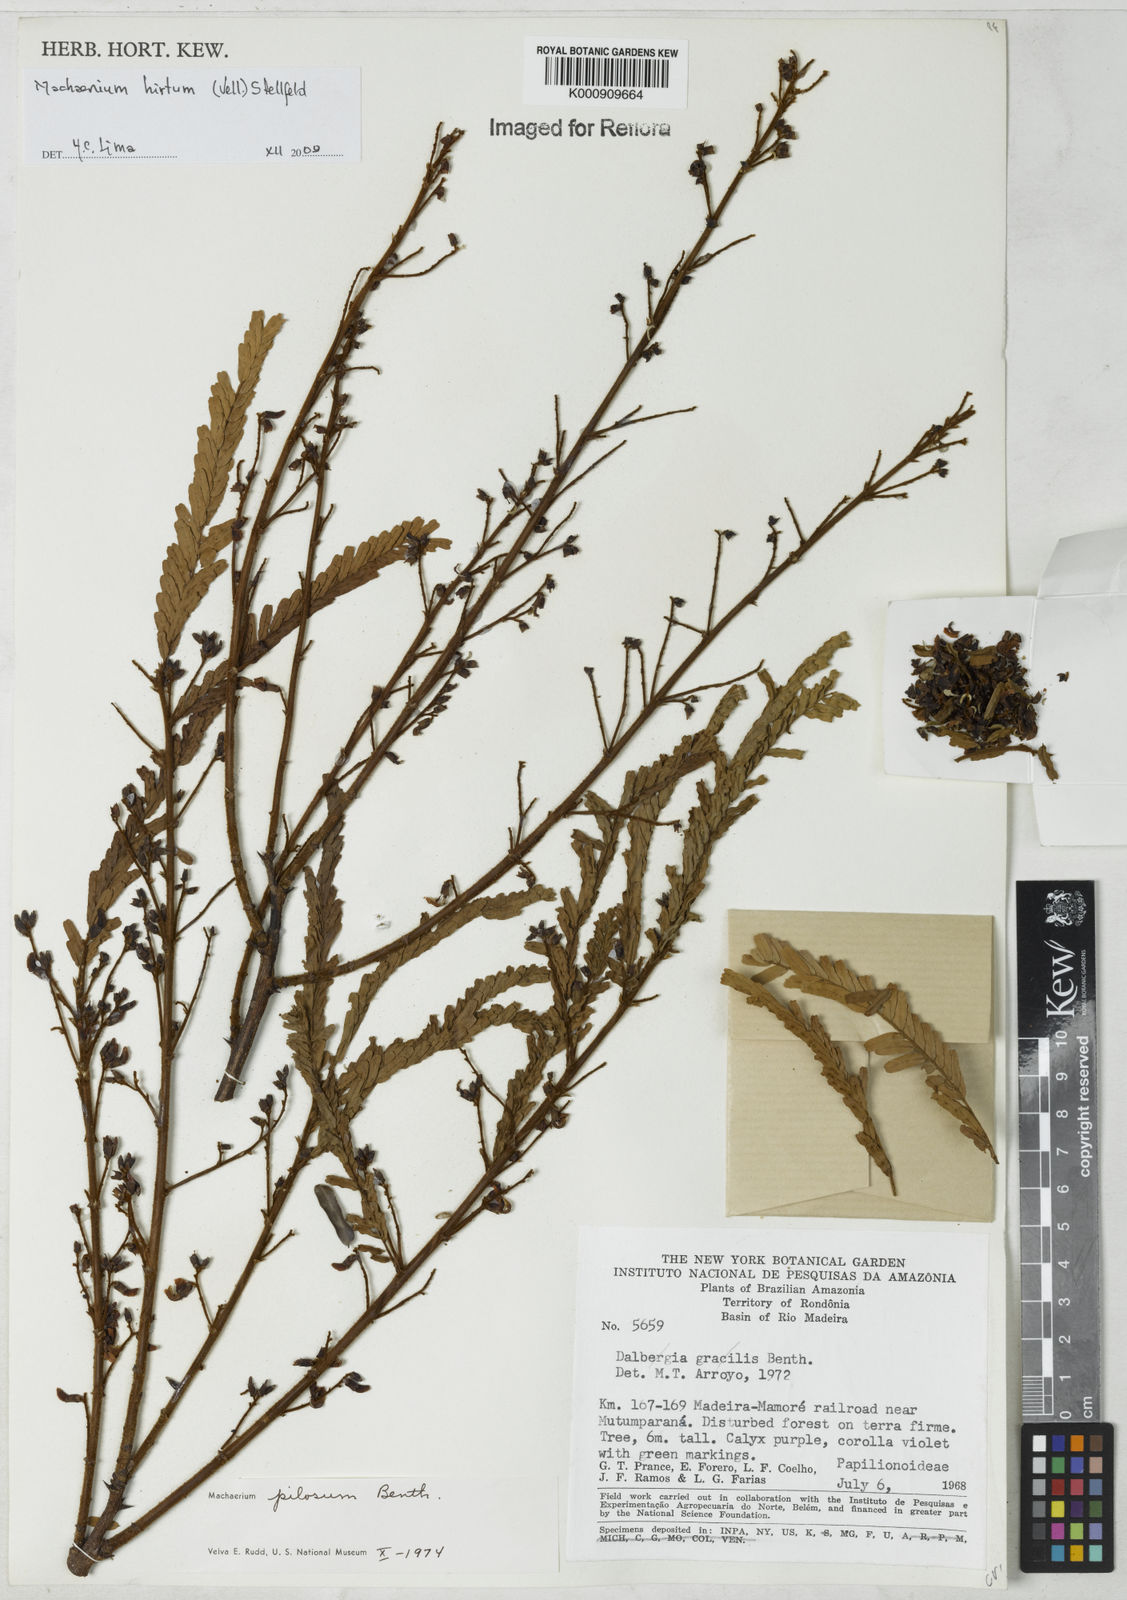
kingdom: Plantae
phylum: Tracheophyta
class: Magnoliopsida
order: Fabales
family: Fabaceae
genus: Machaerium
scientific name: Machaerium hirtum
